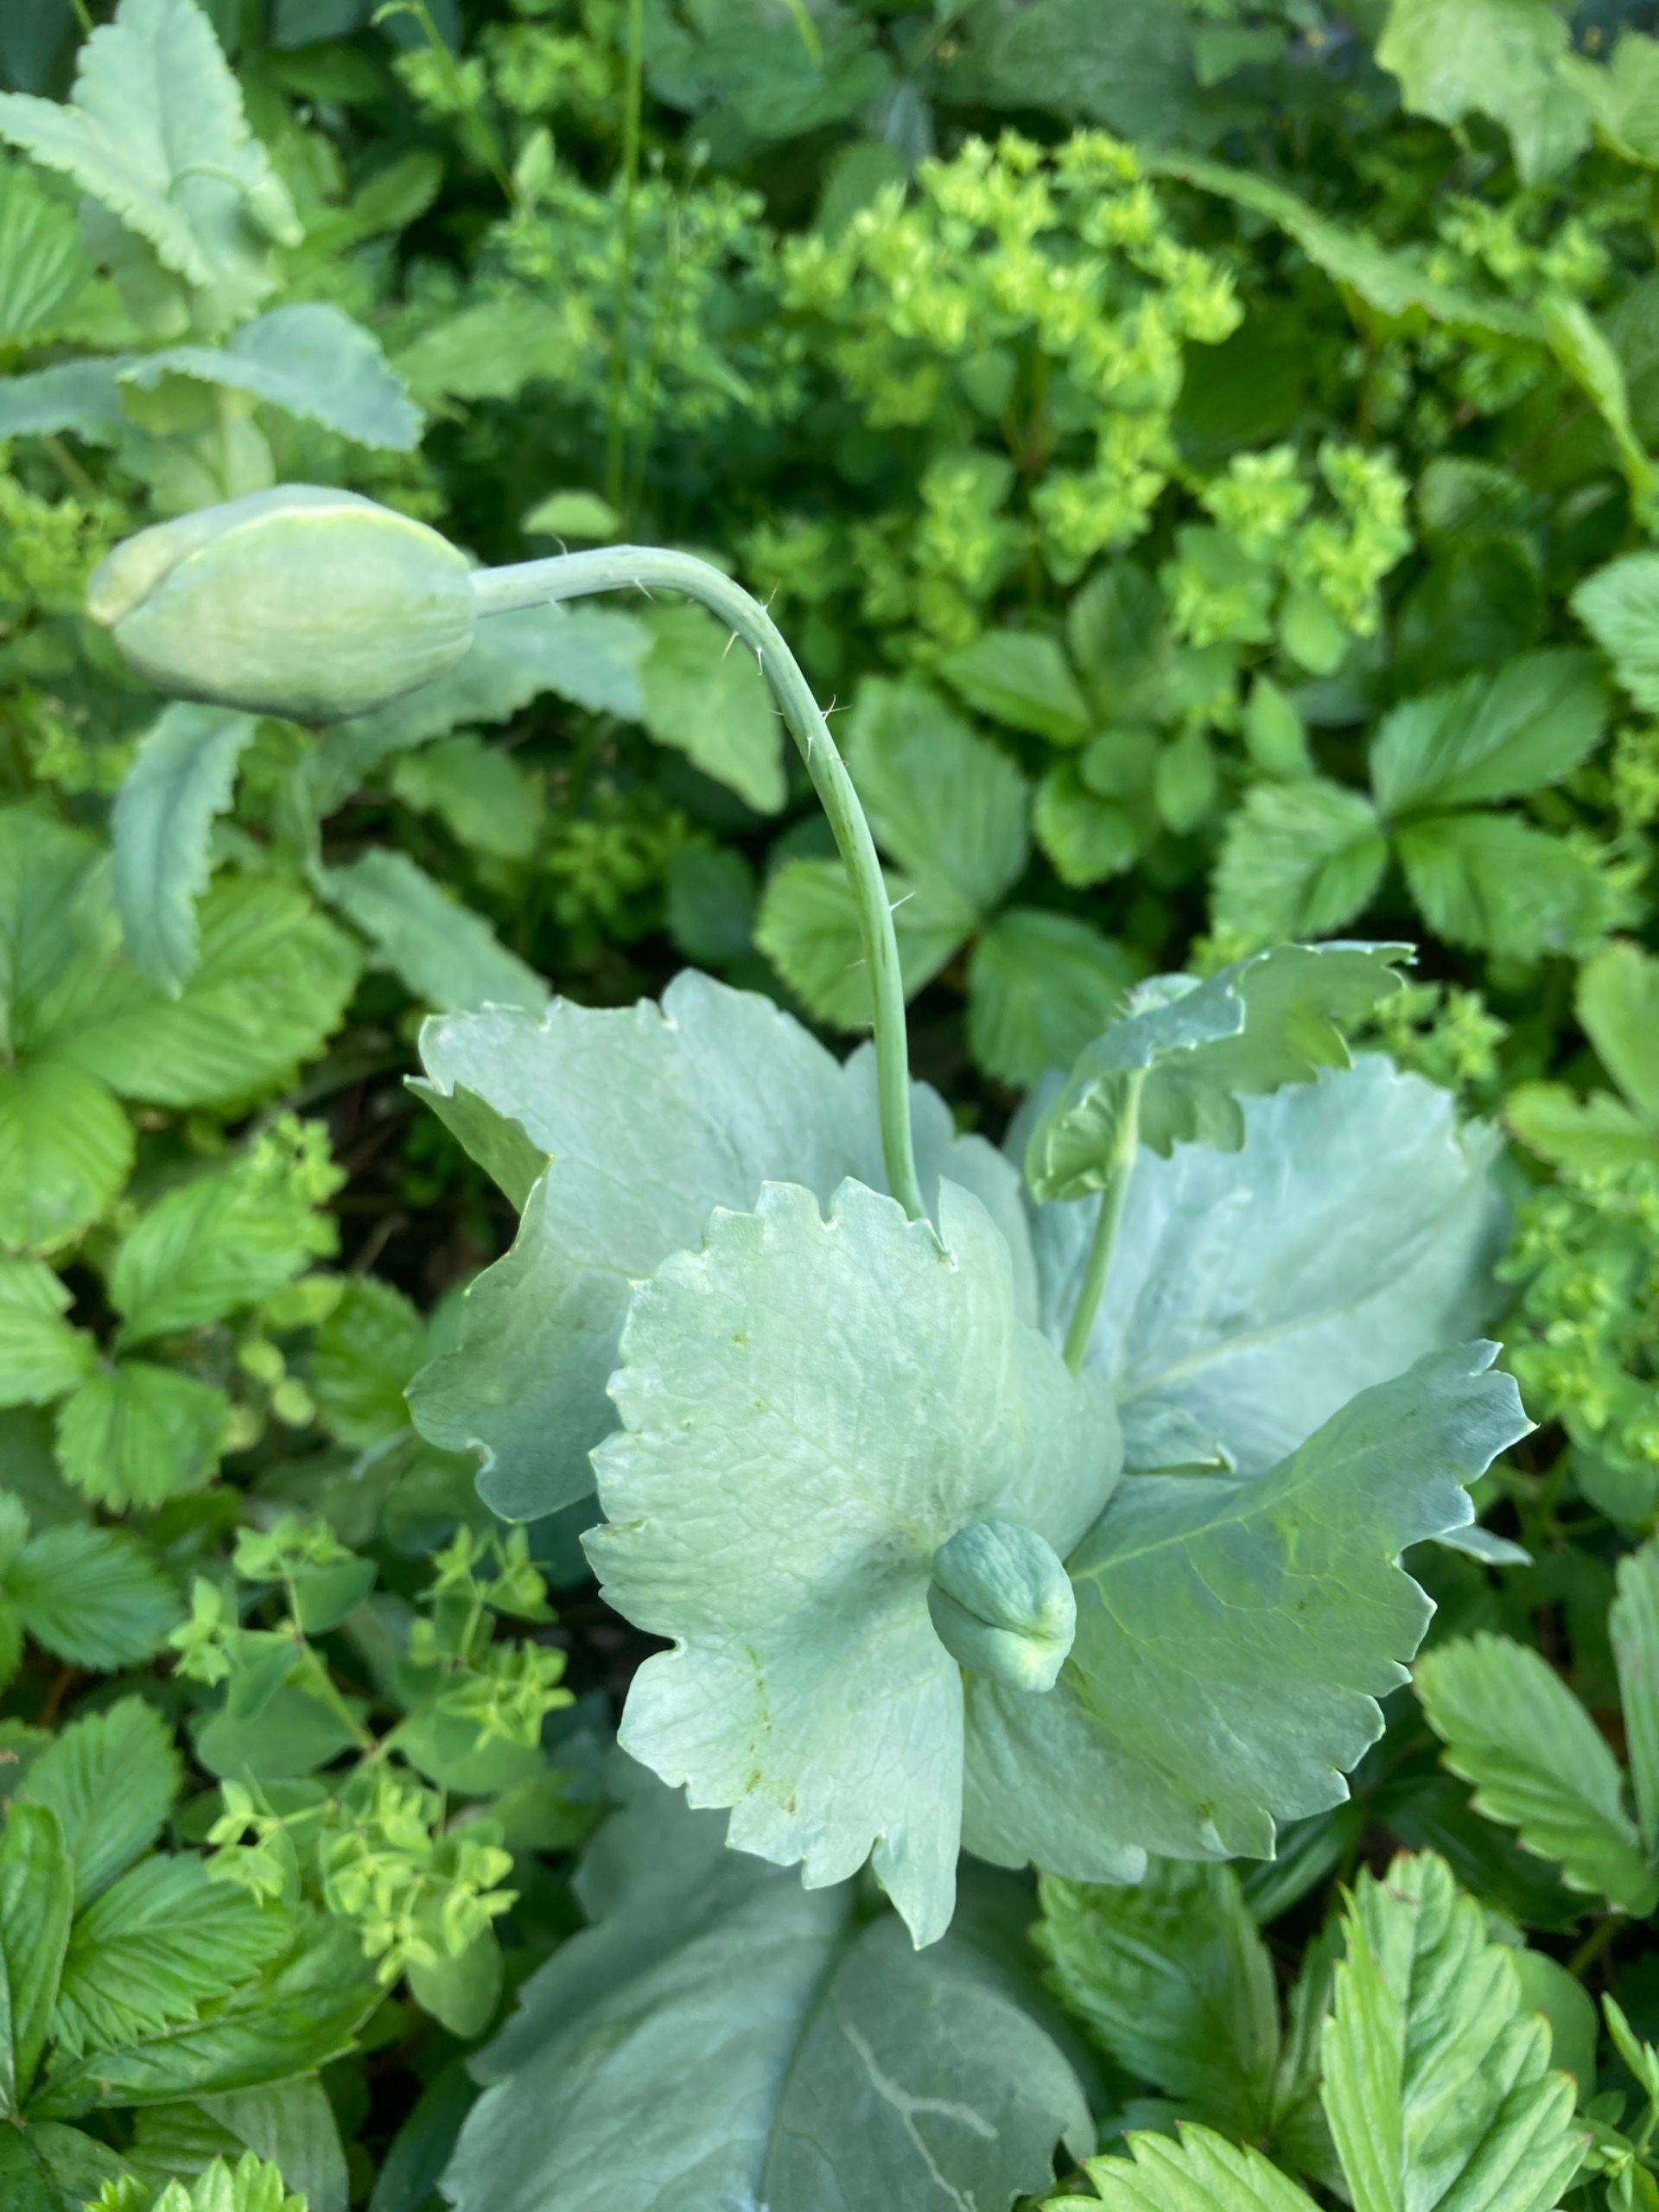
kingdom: Plantae
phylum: Tracheophyta
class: Magnoliopsida
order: Ranunculales
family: Papaveraceae
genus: Papaver
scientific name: Papaver somniferum
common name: Opium-valmue
